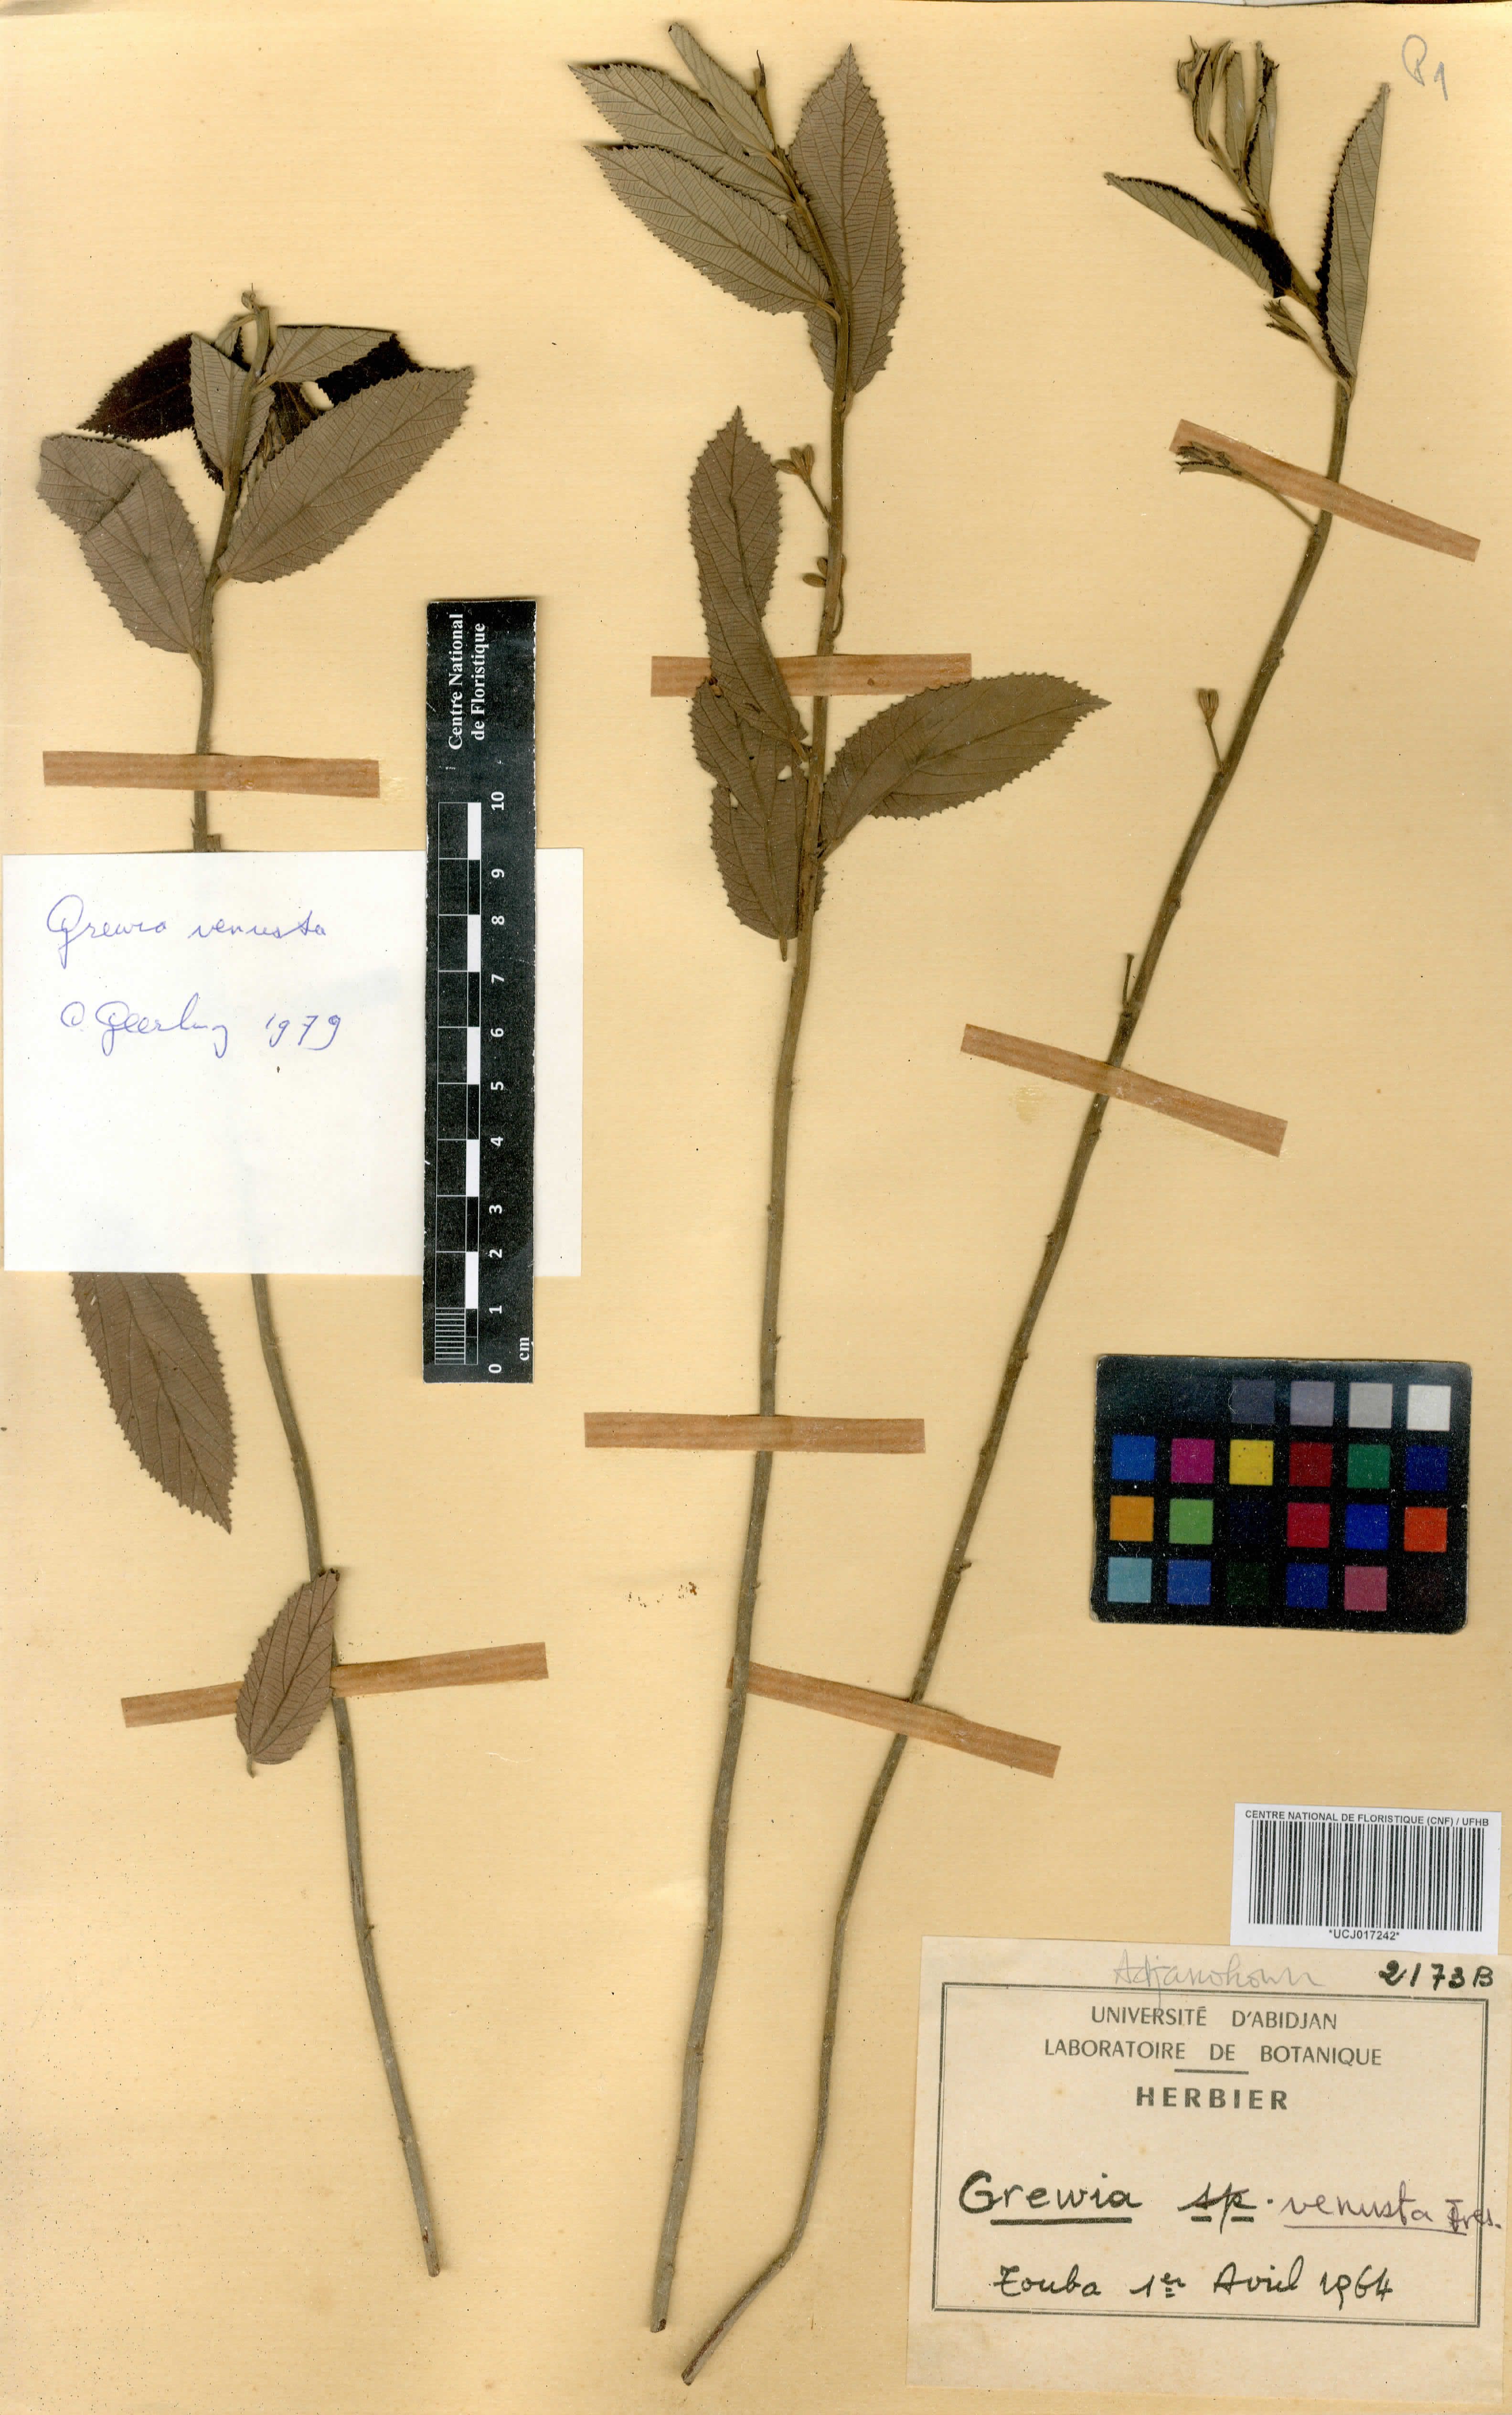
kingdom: Plantae
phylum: Tracheophyta
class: Magnoliopsida
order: Malvales
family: Malvaceae
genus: Grewia
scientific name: Grewia mollis
